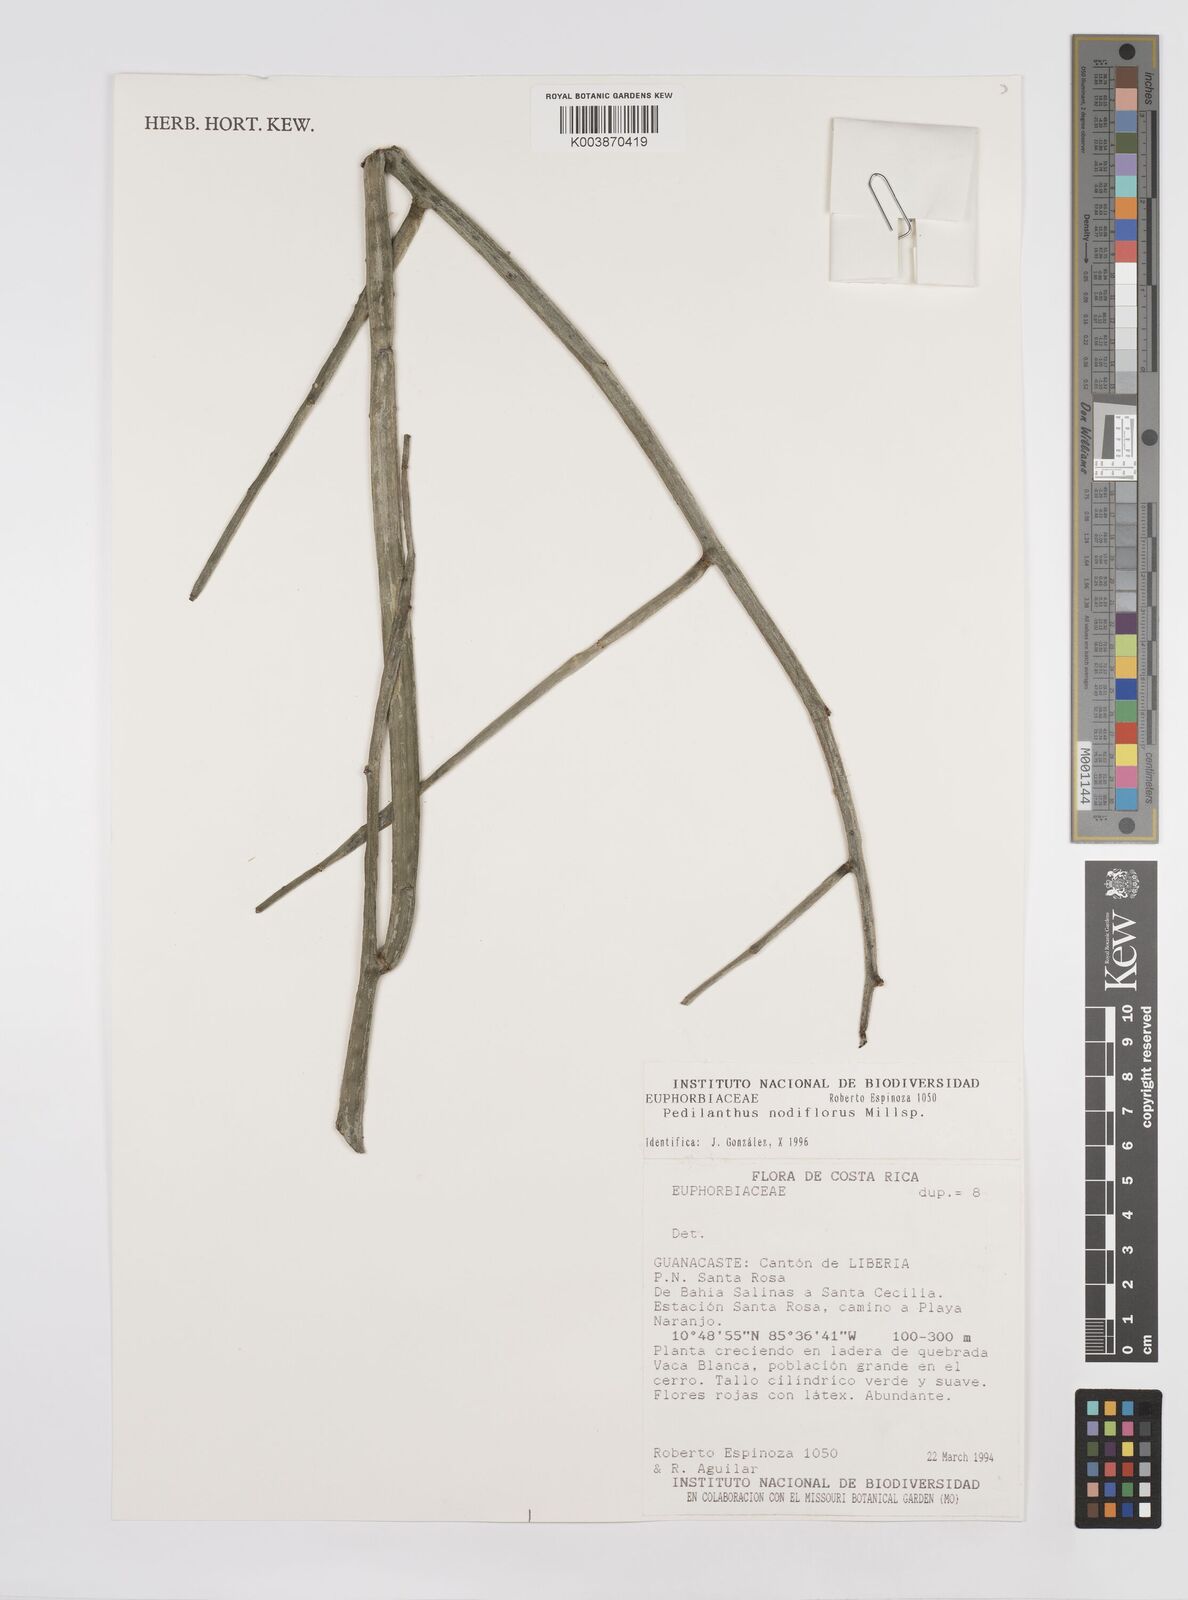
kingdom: Plantae
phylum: Tracheophyta
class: Magnoliopsida
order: Malpighiales
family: Euphorbiaceae
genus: Euphorbia
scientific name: Euphorbia personata
